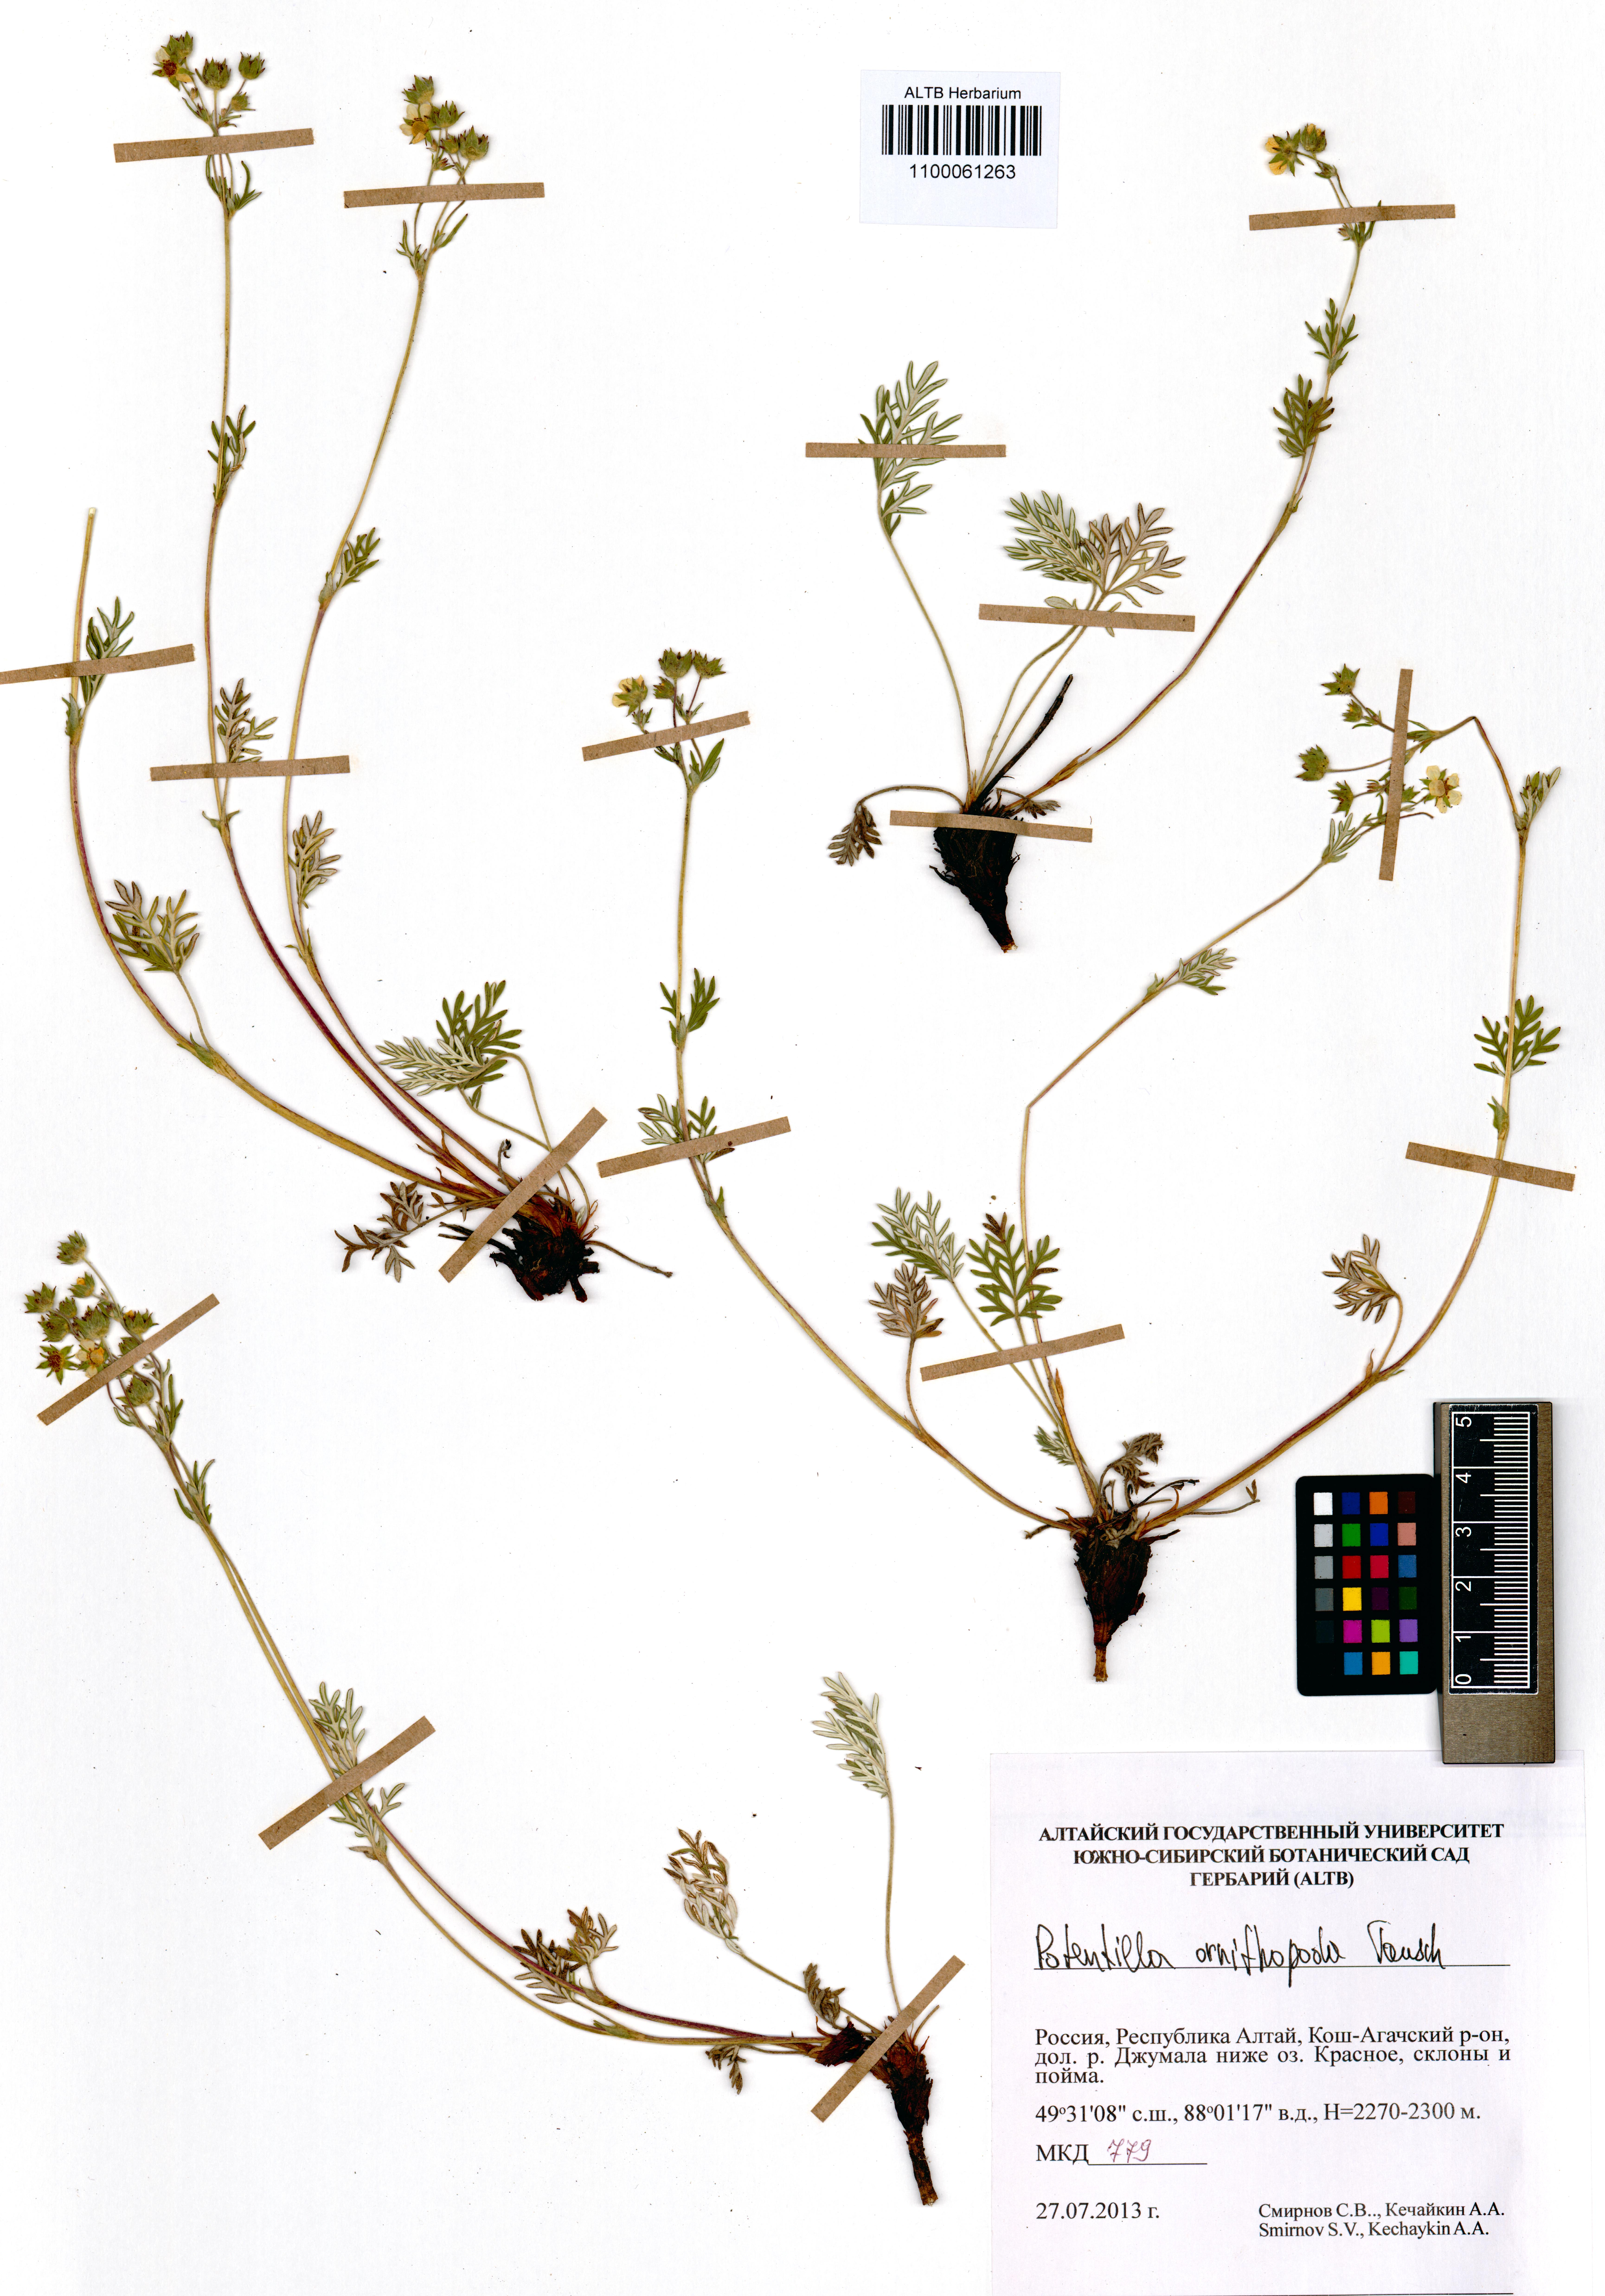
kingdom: Plantae
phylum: Tracheophyta
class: Magnoliopsida
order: Rosales
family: Rosaceae
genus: Potentilla
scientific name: Potentilla ornithopoda
